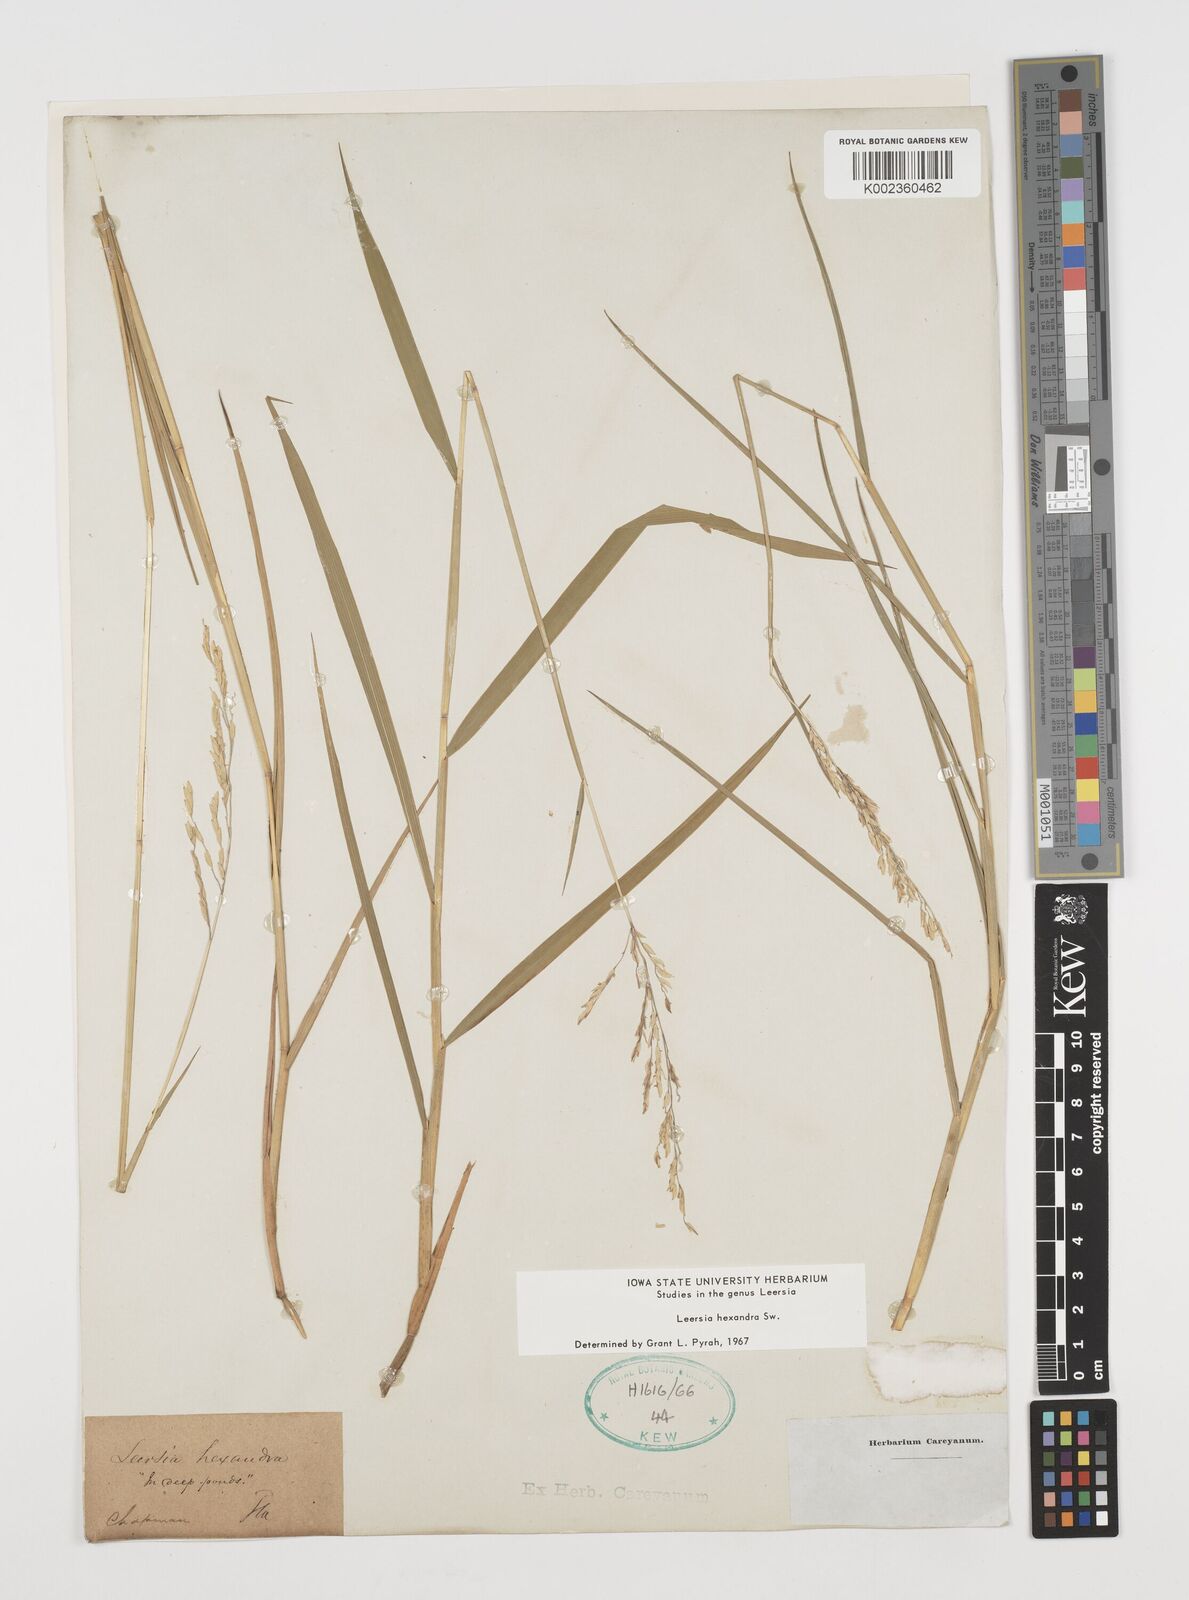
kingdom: Plantae
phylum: Tracheophyta
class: Liliopsida
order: Poales
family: Poaceae
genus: Leersia
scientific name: Leersia hexandra
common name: Southern cut grass
